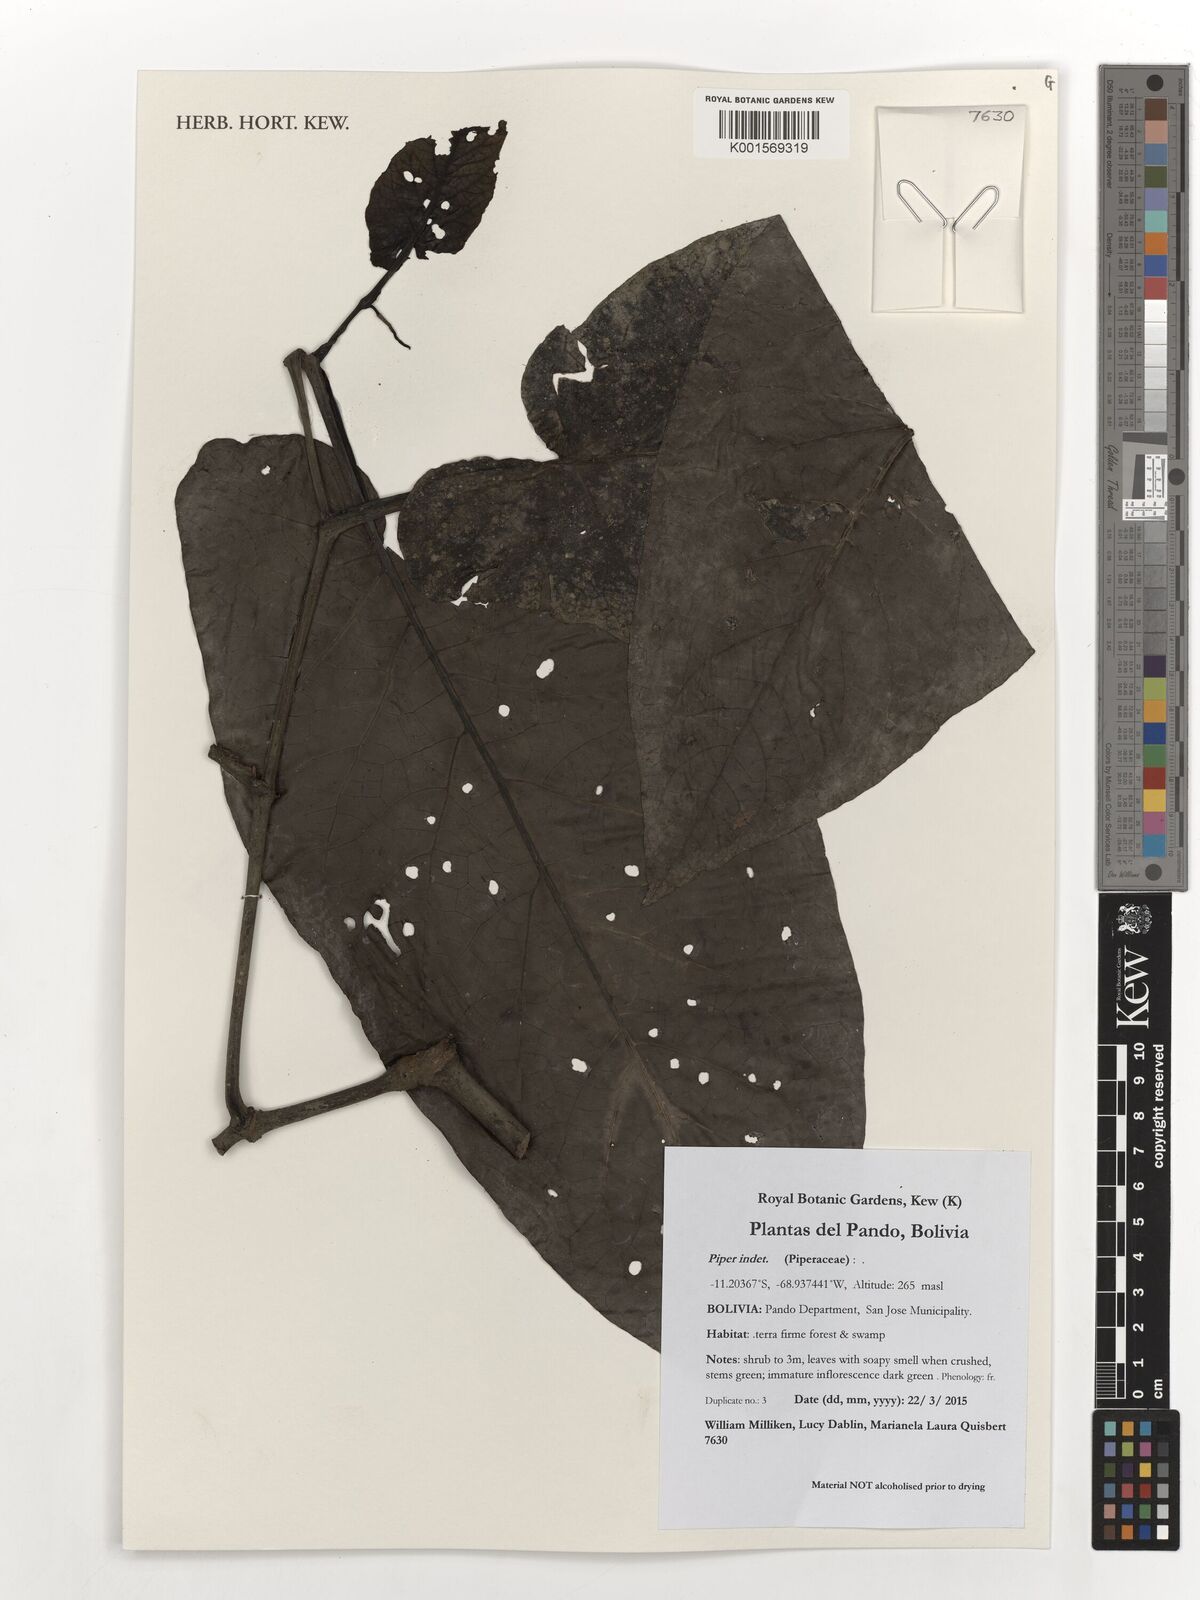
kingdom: Plantae
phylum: Tracheophyta
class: Magnoliopsida
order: Piperales
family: Piperaceae
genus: Piper
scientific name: Piper
